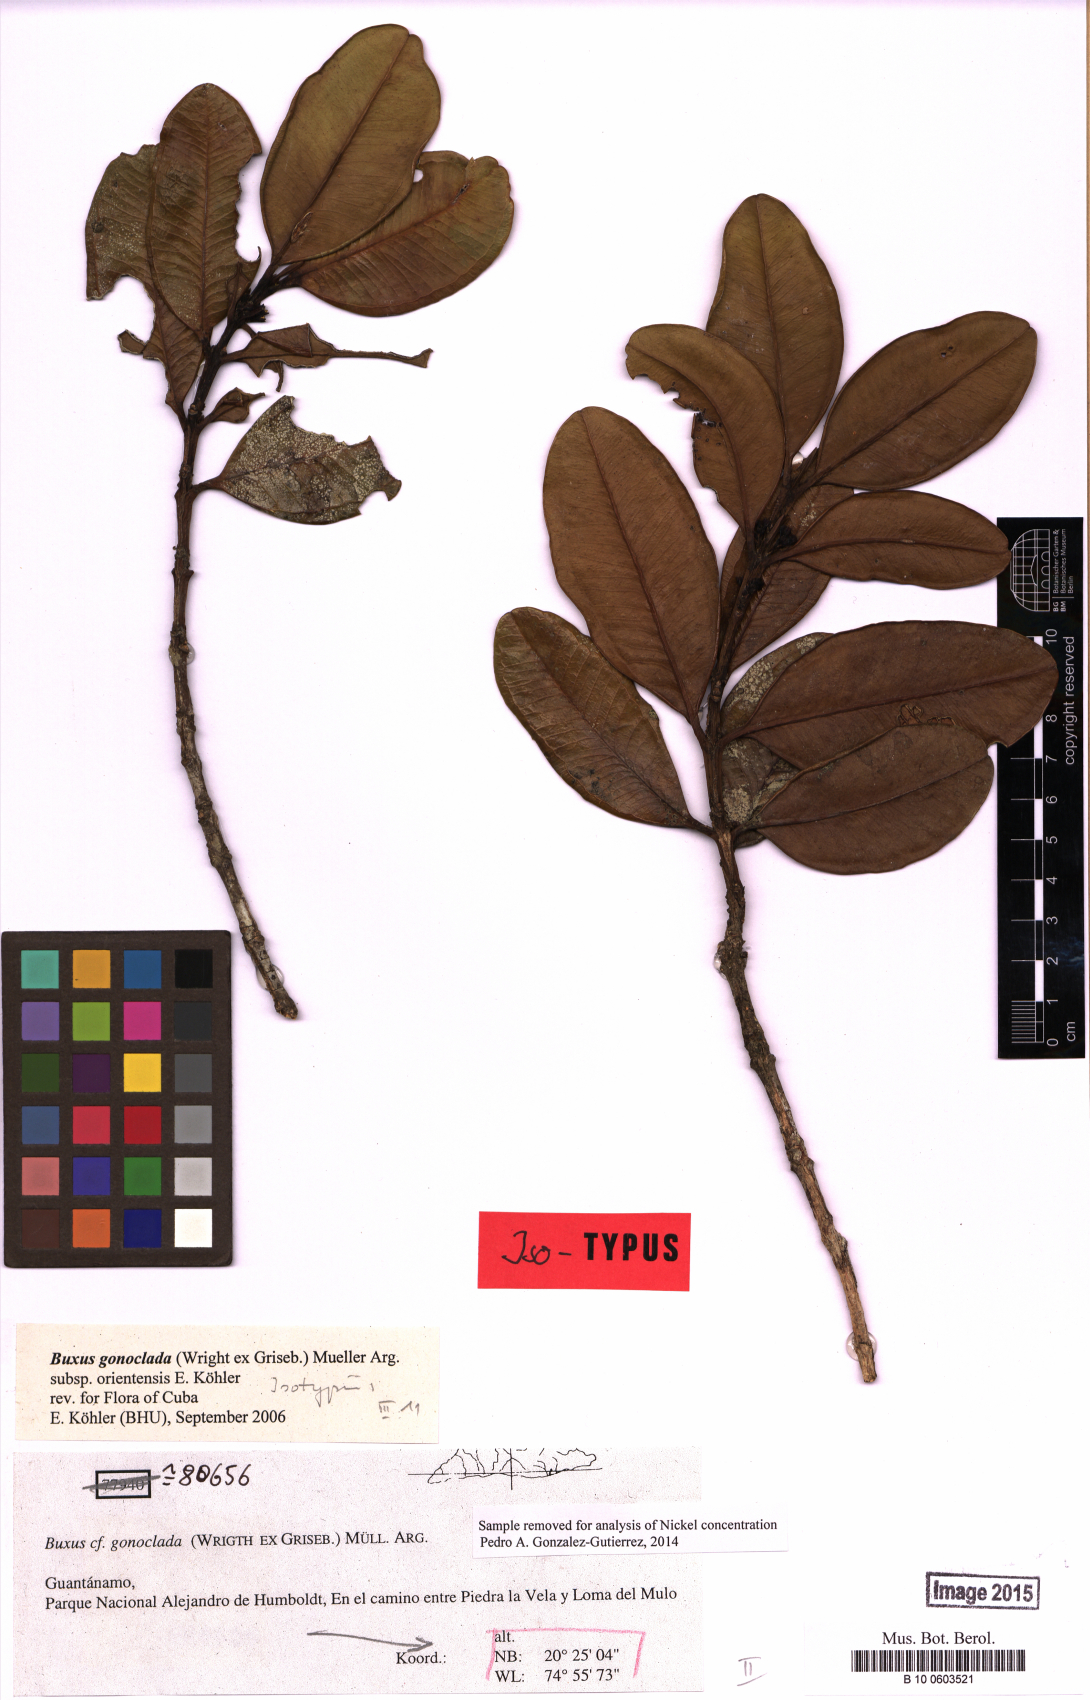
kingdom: Plantae
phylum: Tracheophyta
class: Magnoliopsida
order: Buxales
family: Buxaceae
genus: Buxus
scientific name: Buxus gonoclada
